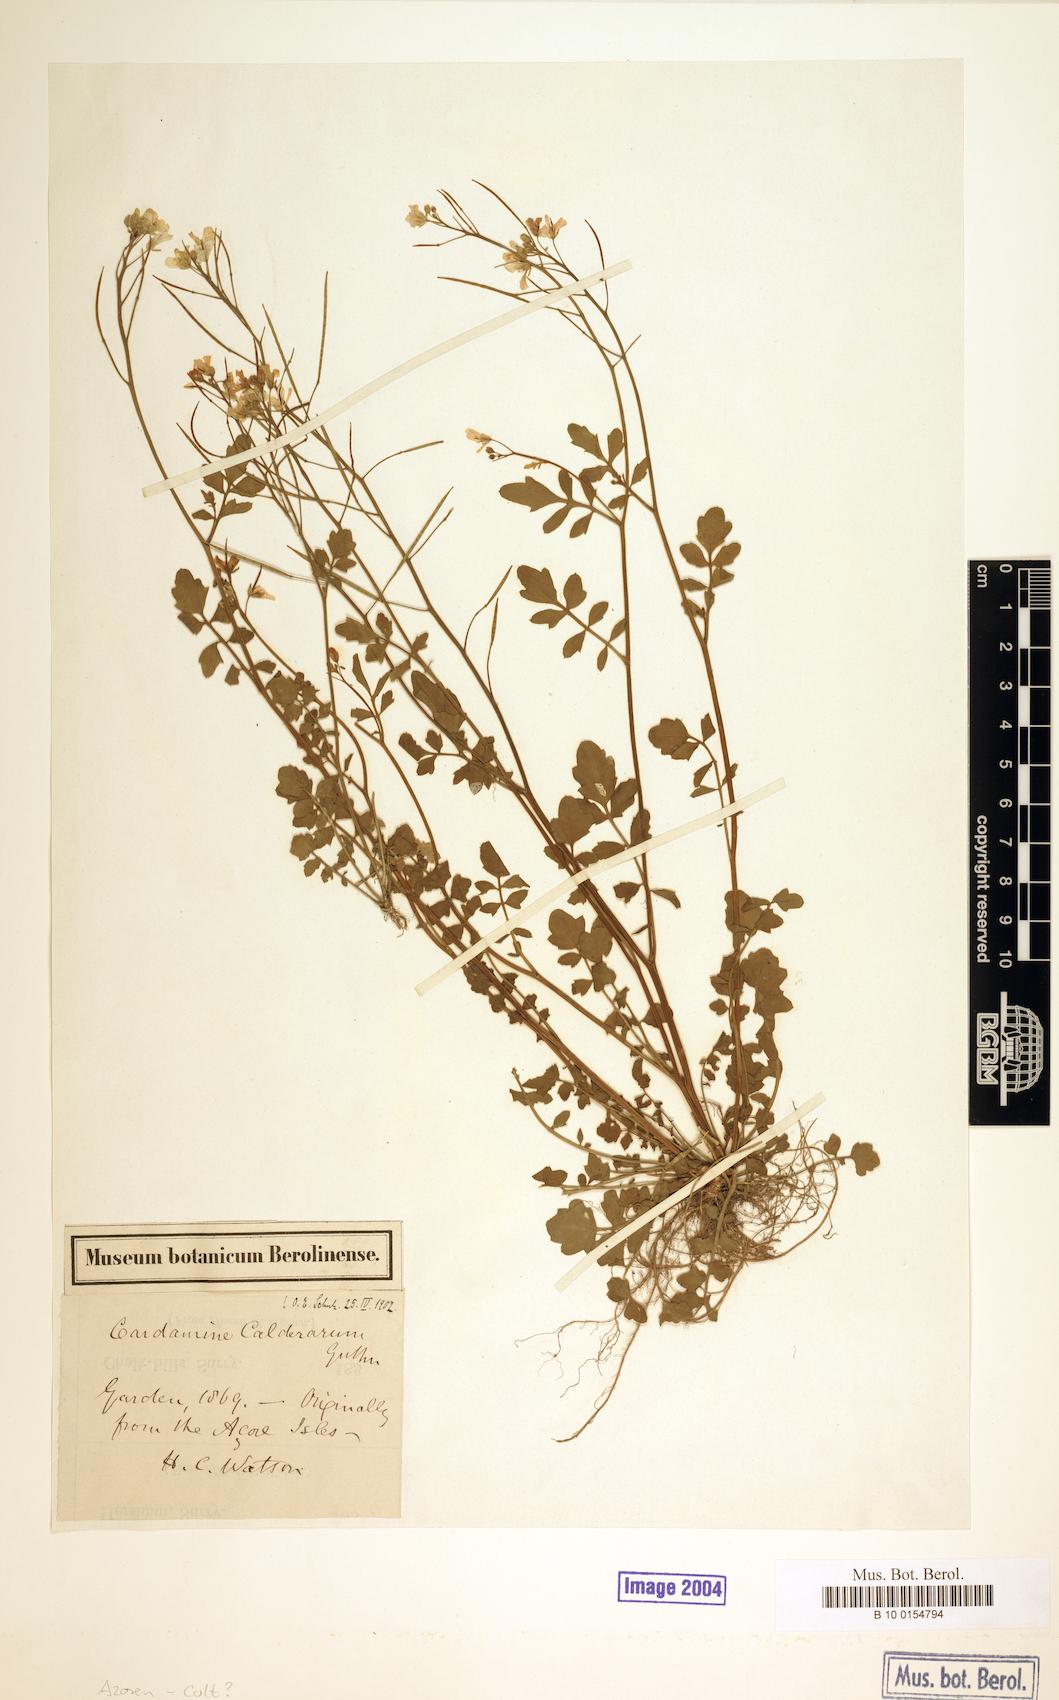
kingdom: Plantae
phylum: Tracheophyta
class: Magnoliopsida
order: Brassicales
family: Brassicaceae
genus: Cardamine
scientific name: Cardamine caldeirarum
